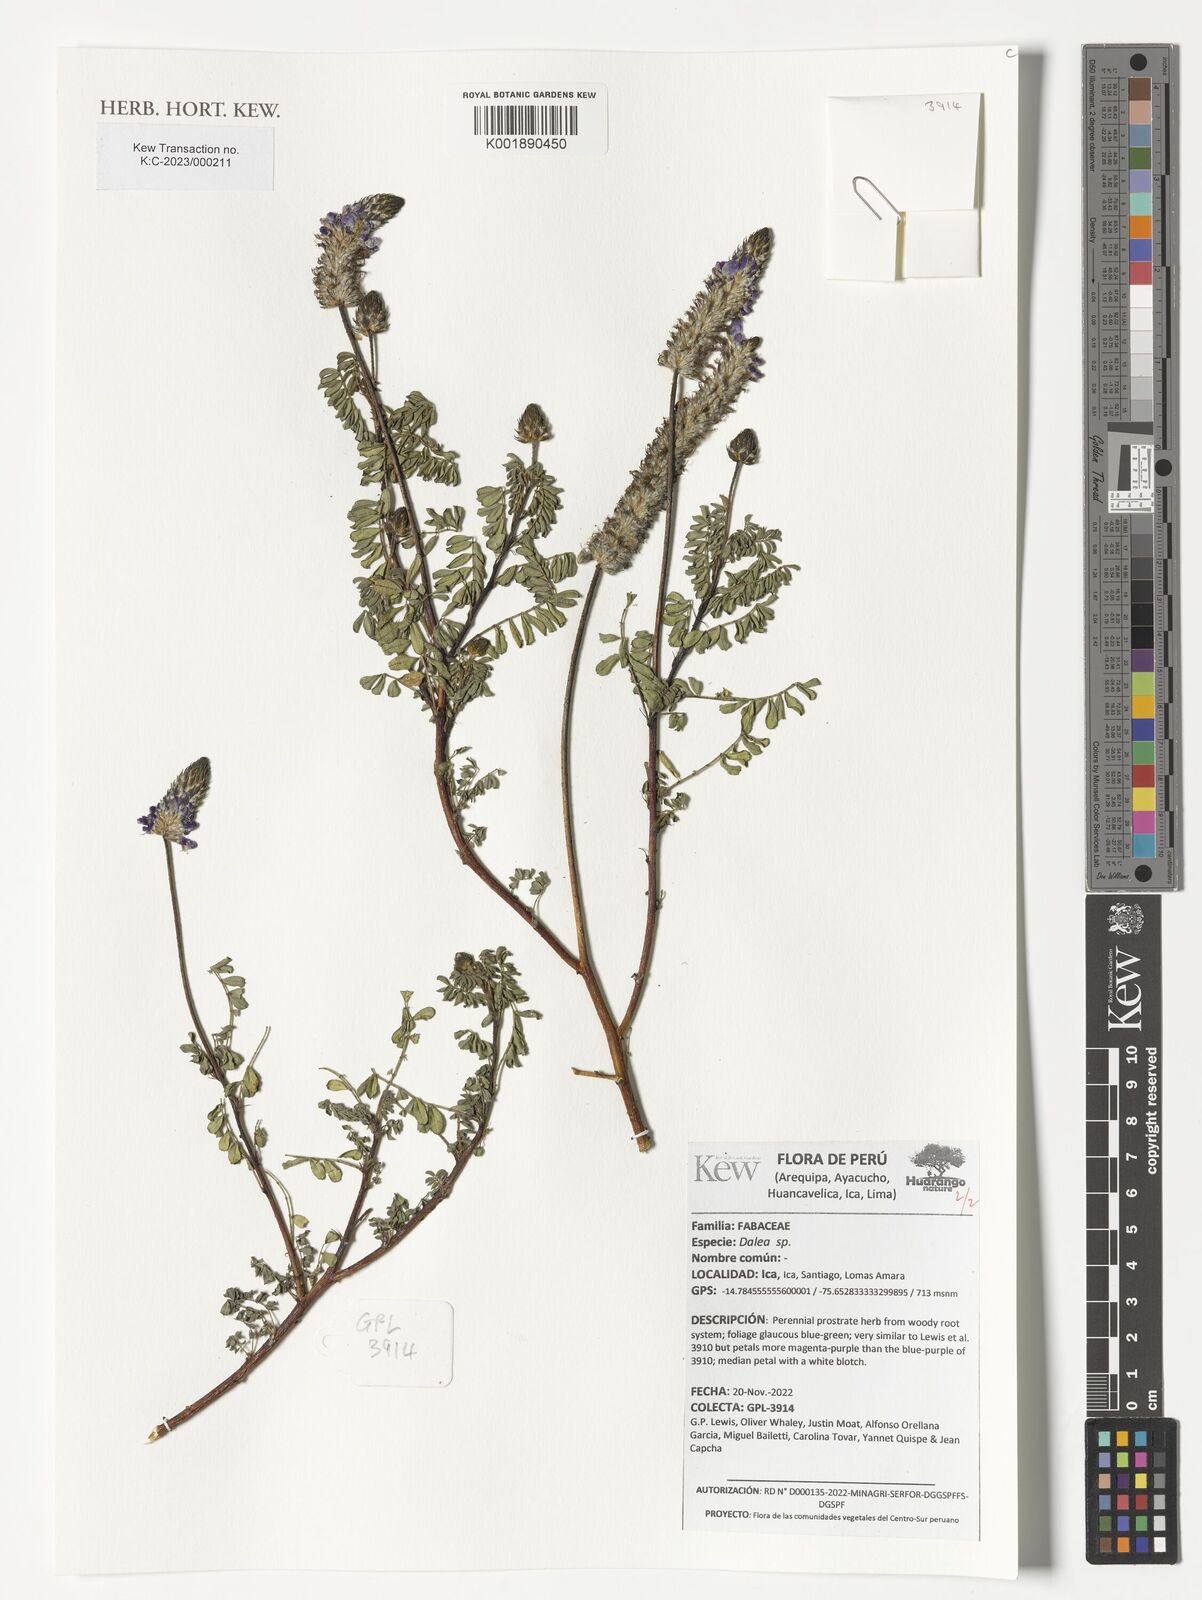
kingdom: Plantae
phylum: Tracheophyta
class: Magnoliopsida
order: Fabales
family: Fabaceae
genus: Dalea
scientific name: Dalea
